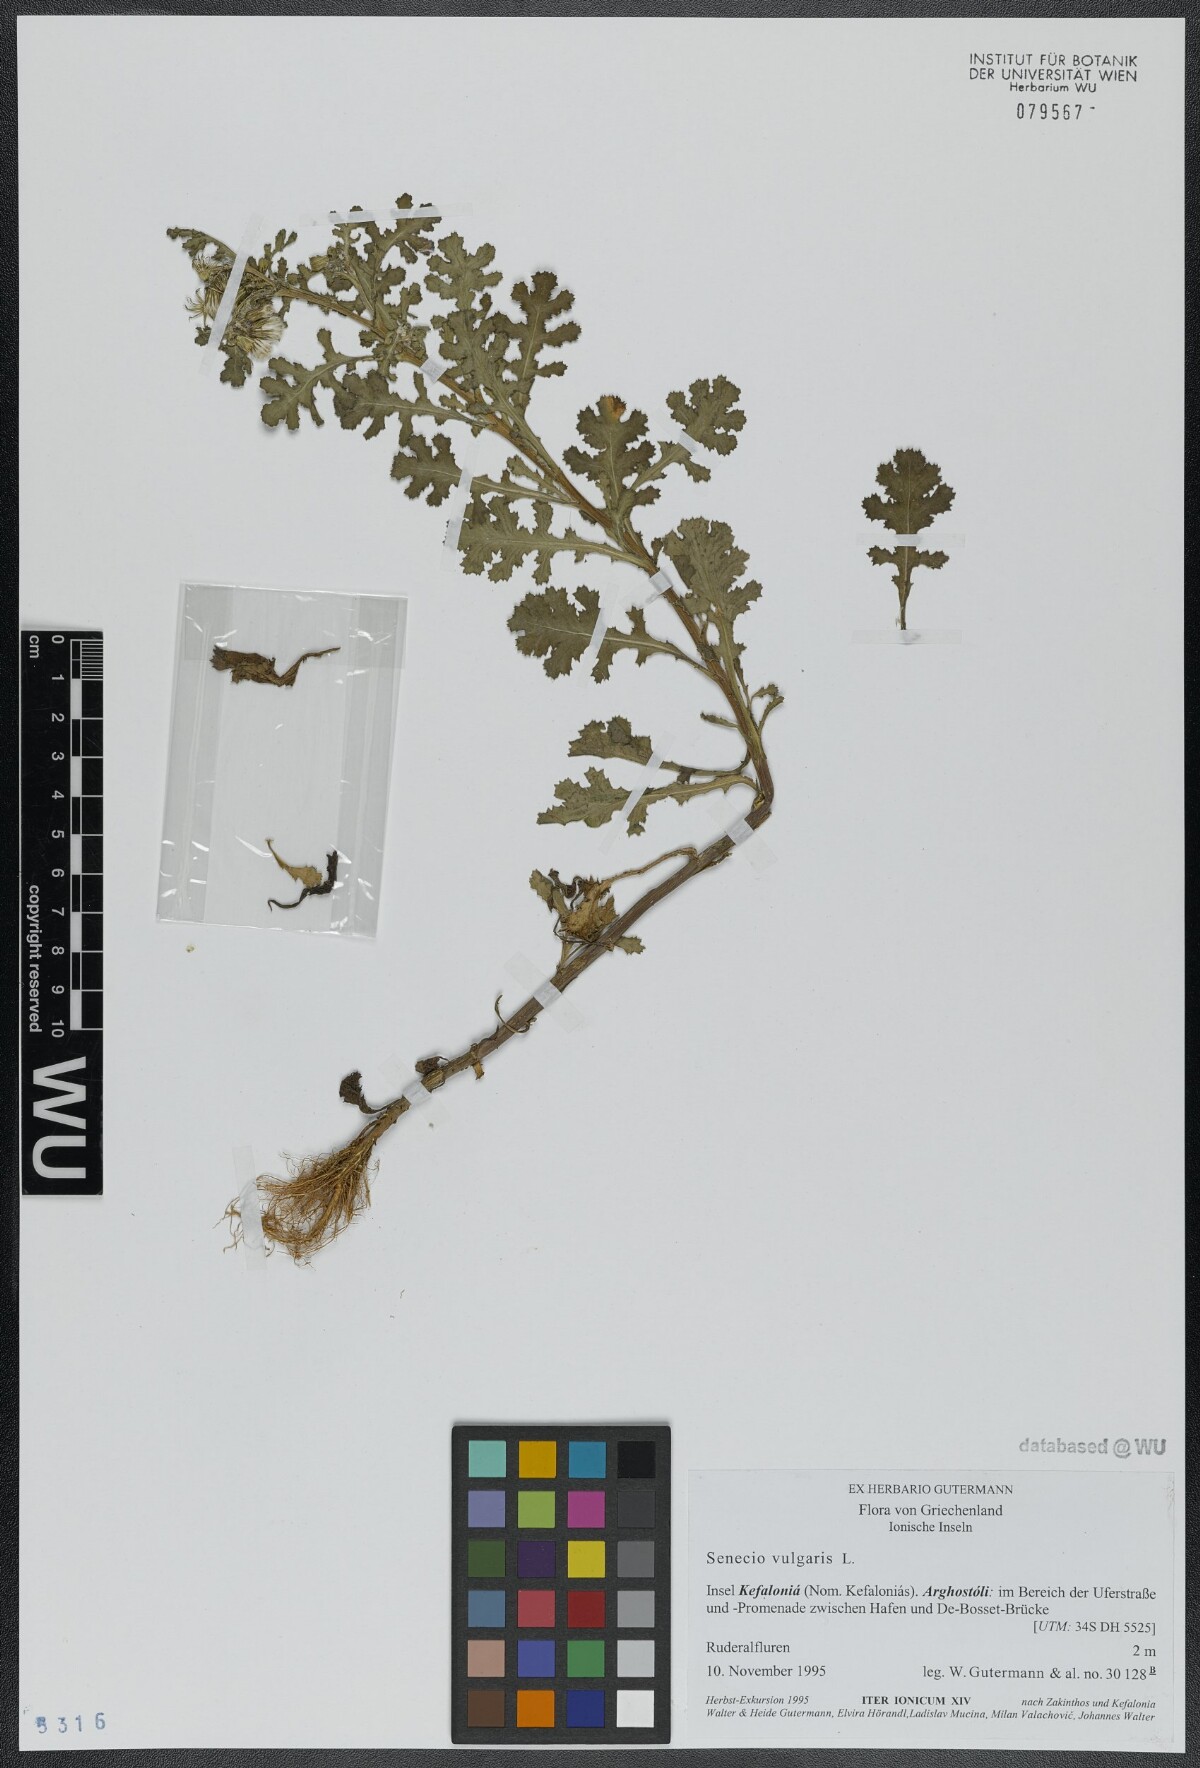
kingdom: Plantae
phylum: Tracheophyta
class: Magnoliopsida
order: Asterales
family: Asteraceae
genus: Senecio
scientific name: Senecio vulgaris
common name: Old-man-in-the-spring
